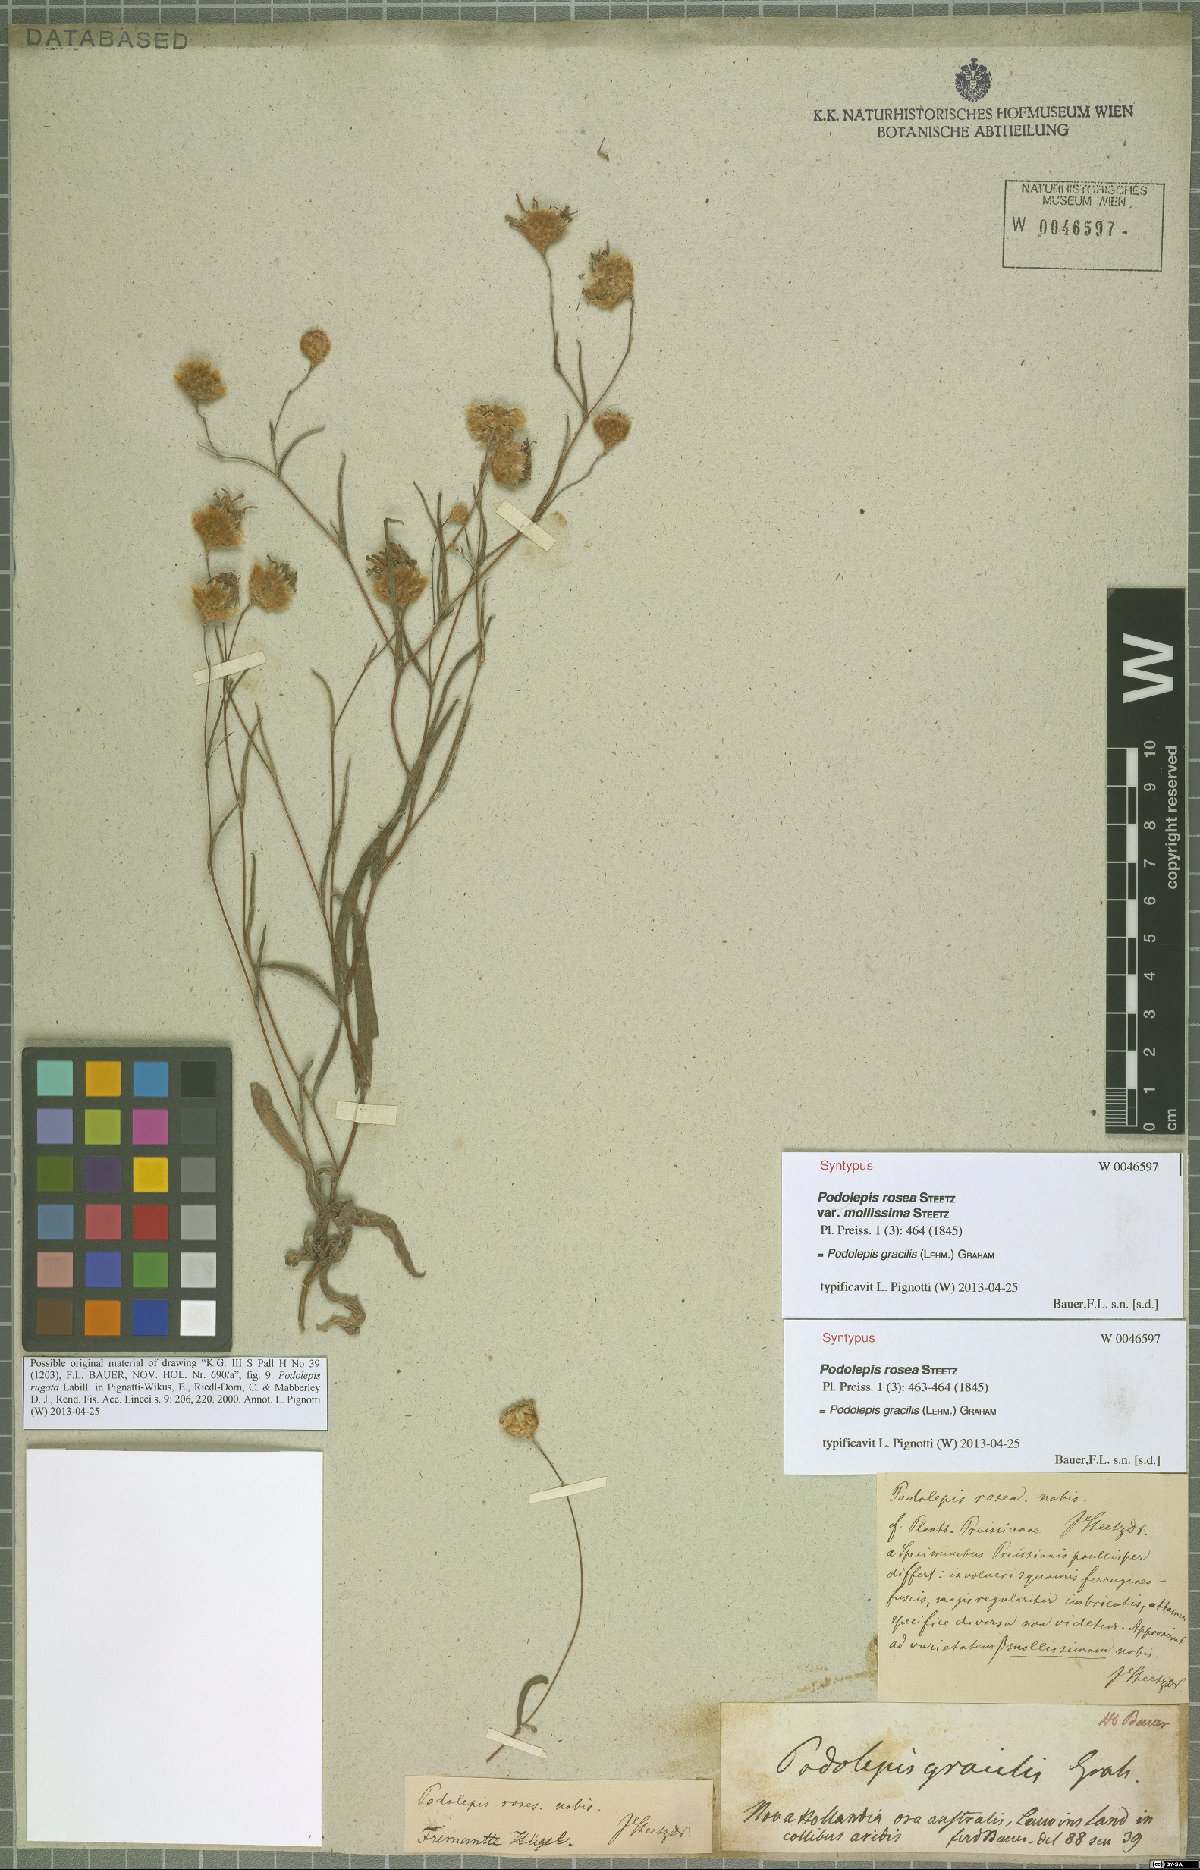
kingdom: Plantae
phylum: Tracheophyta
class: Magnoliopsida
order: Asterales
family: Asteraceae
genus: Podolepis
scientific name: Podolepis gracilis
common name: Slender podolepis
